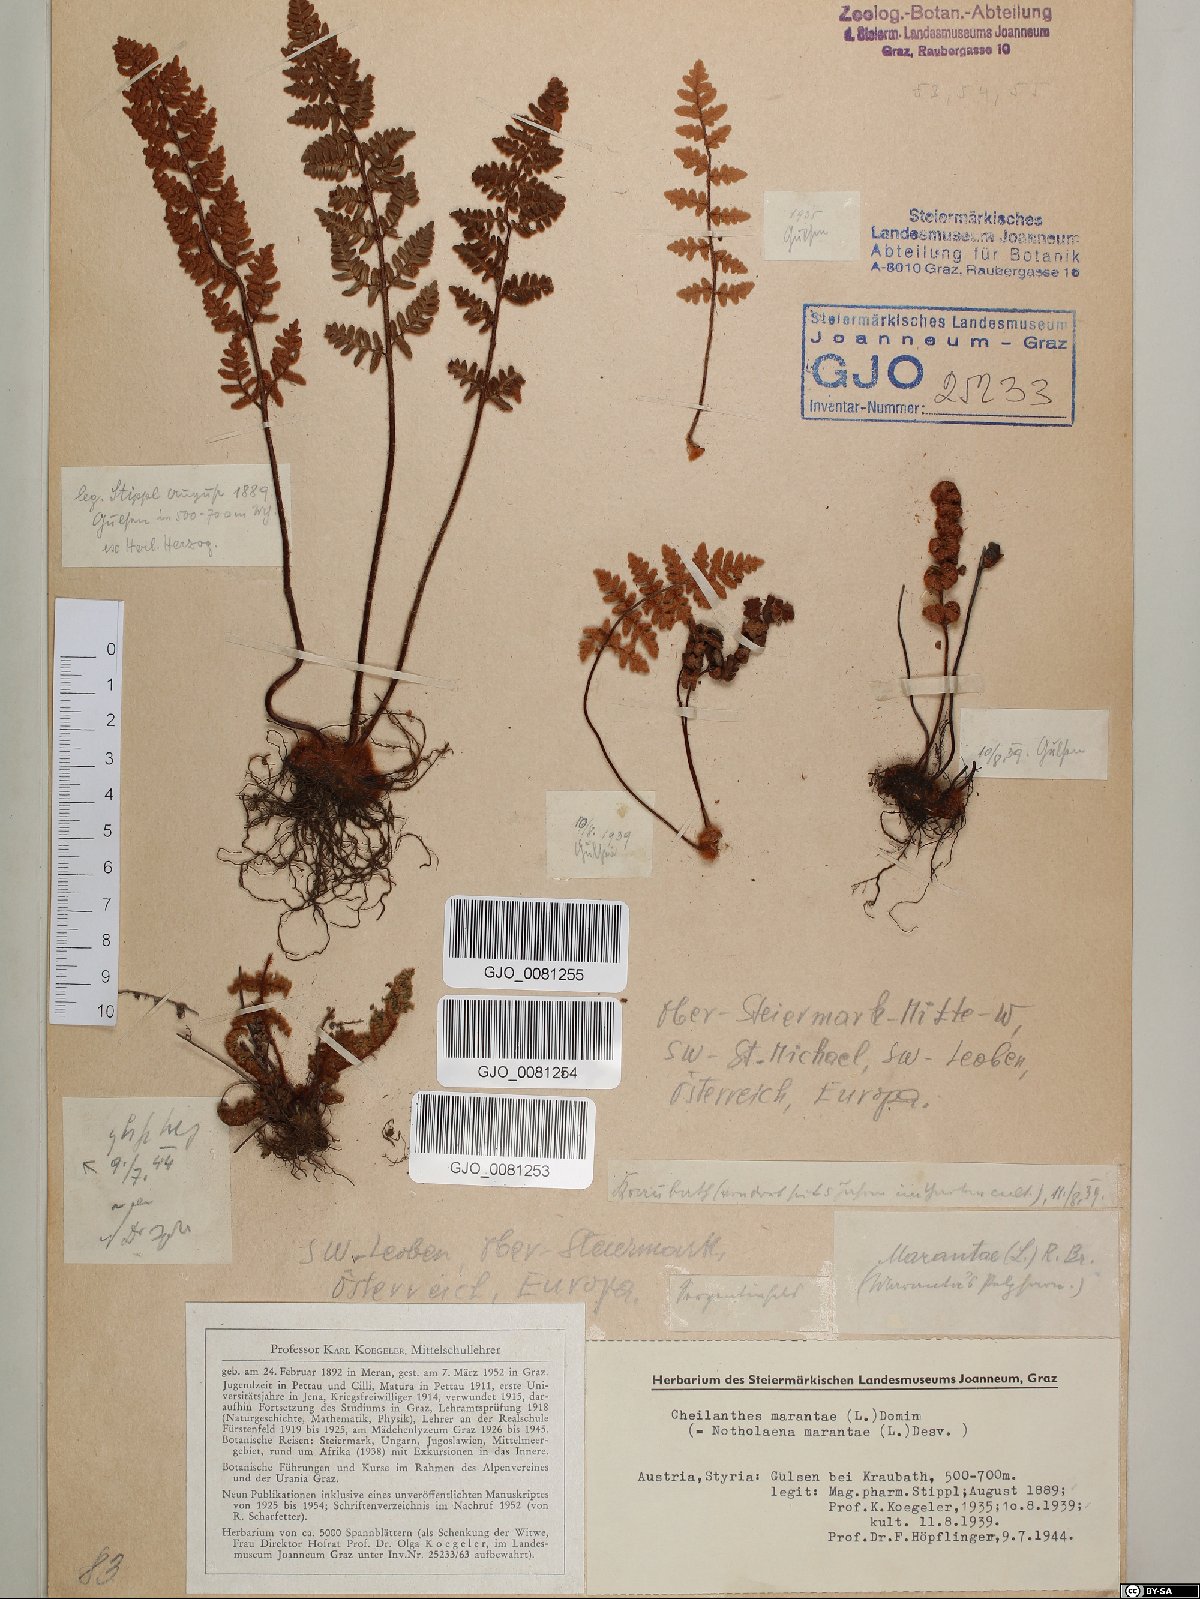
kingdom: Plantae
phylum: Tracheophyta
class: Polypodiopsida
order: Polypodiales
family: Pteridaceae
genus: Paragymnopteris
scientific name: Paragymnopteris marantae
